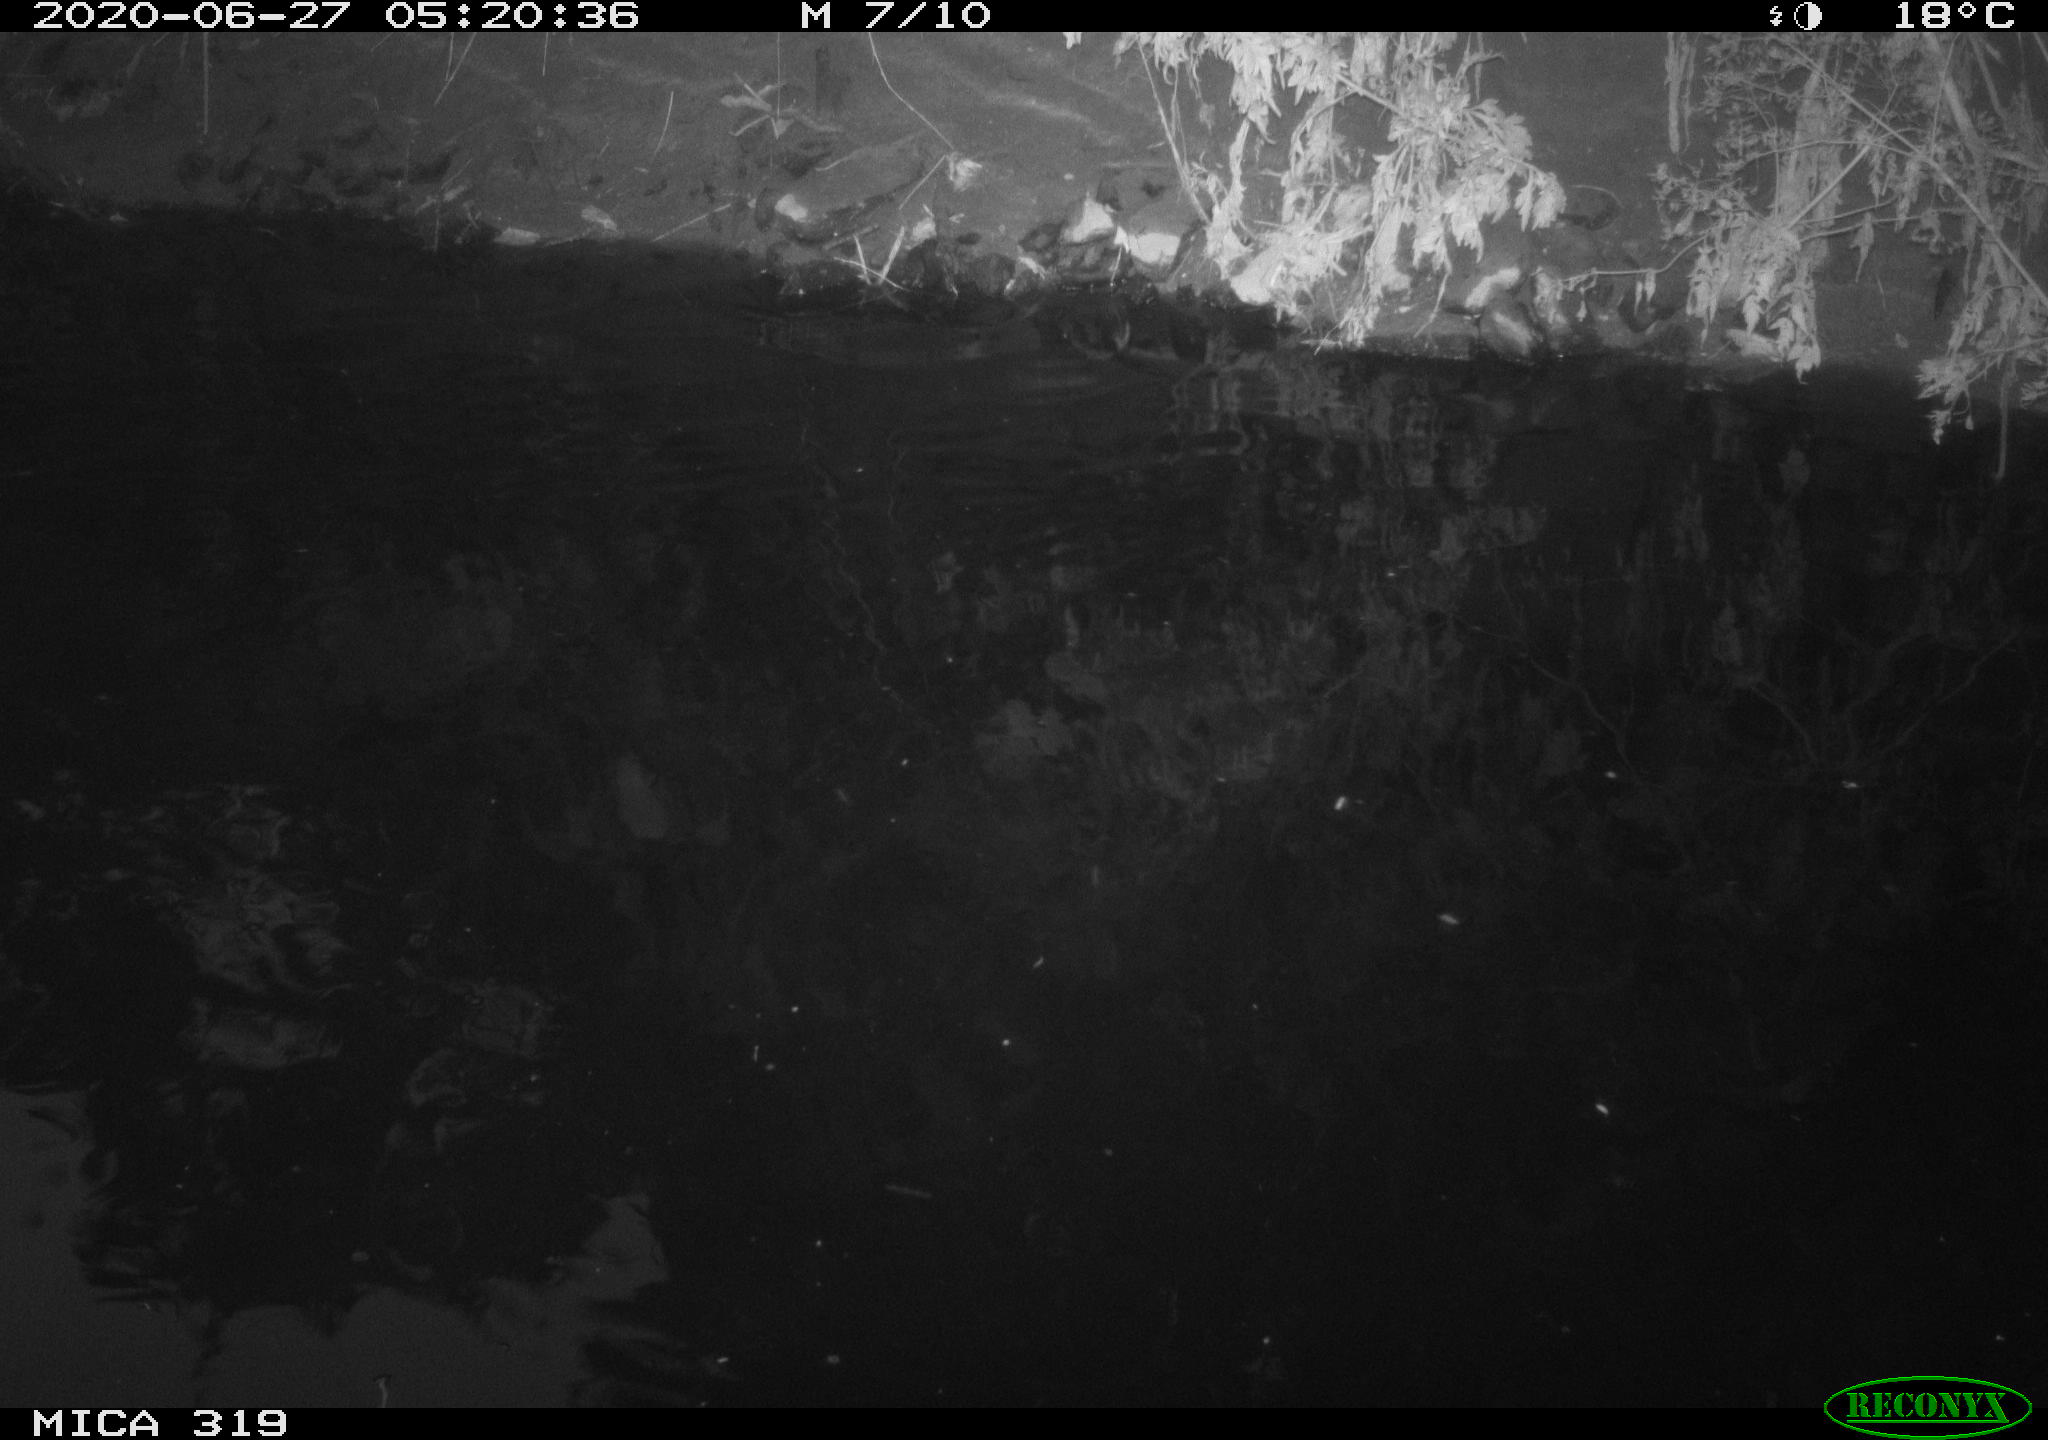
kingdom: Animalia
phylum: Chordata
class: Aves
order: Anseriformes
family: Anatidae
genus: Anas
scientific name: Anas platyrhynchos
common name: Mallard
